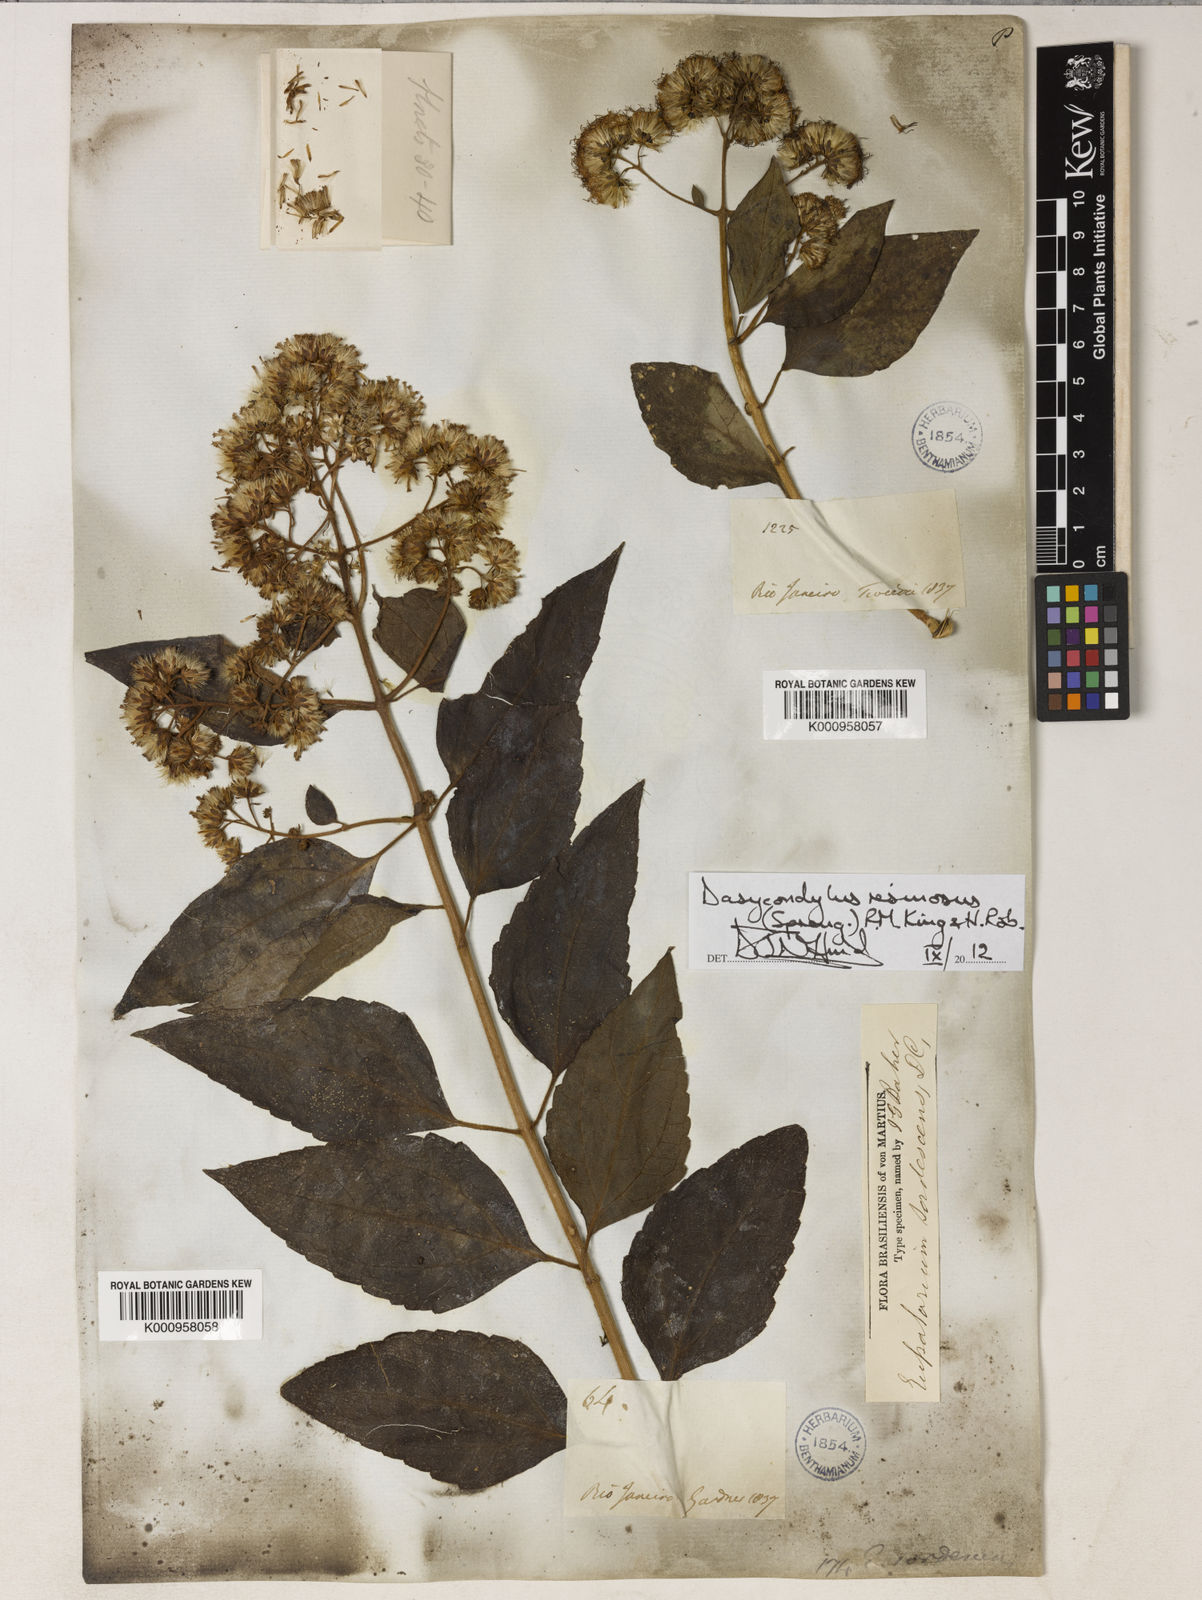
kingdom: Plantae
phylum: Tracheophyta
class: Magnoliopsida
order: Asterales
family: Asteraceae
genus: Dasycondylus
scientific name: Dasycondylus resinosus
